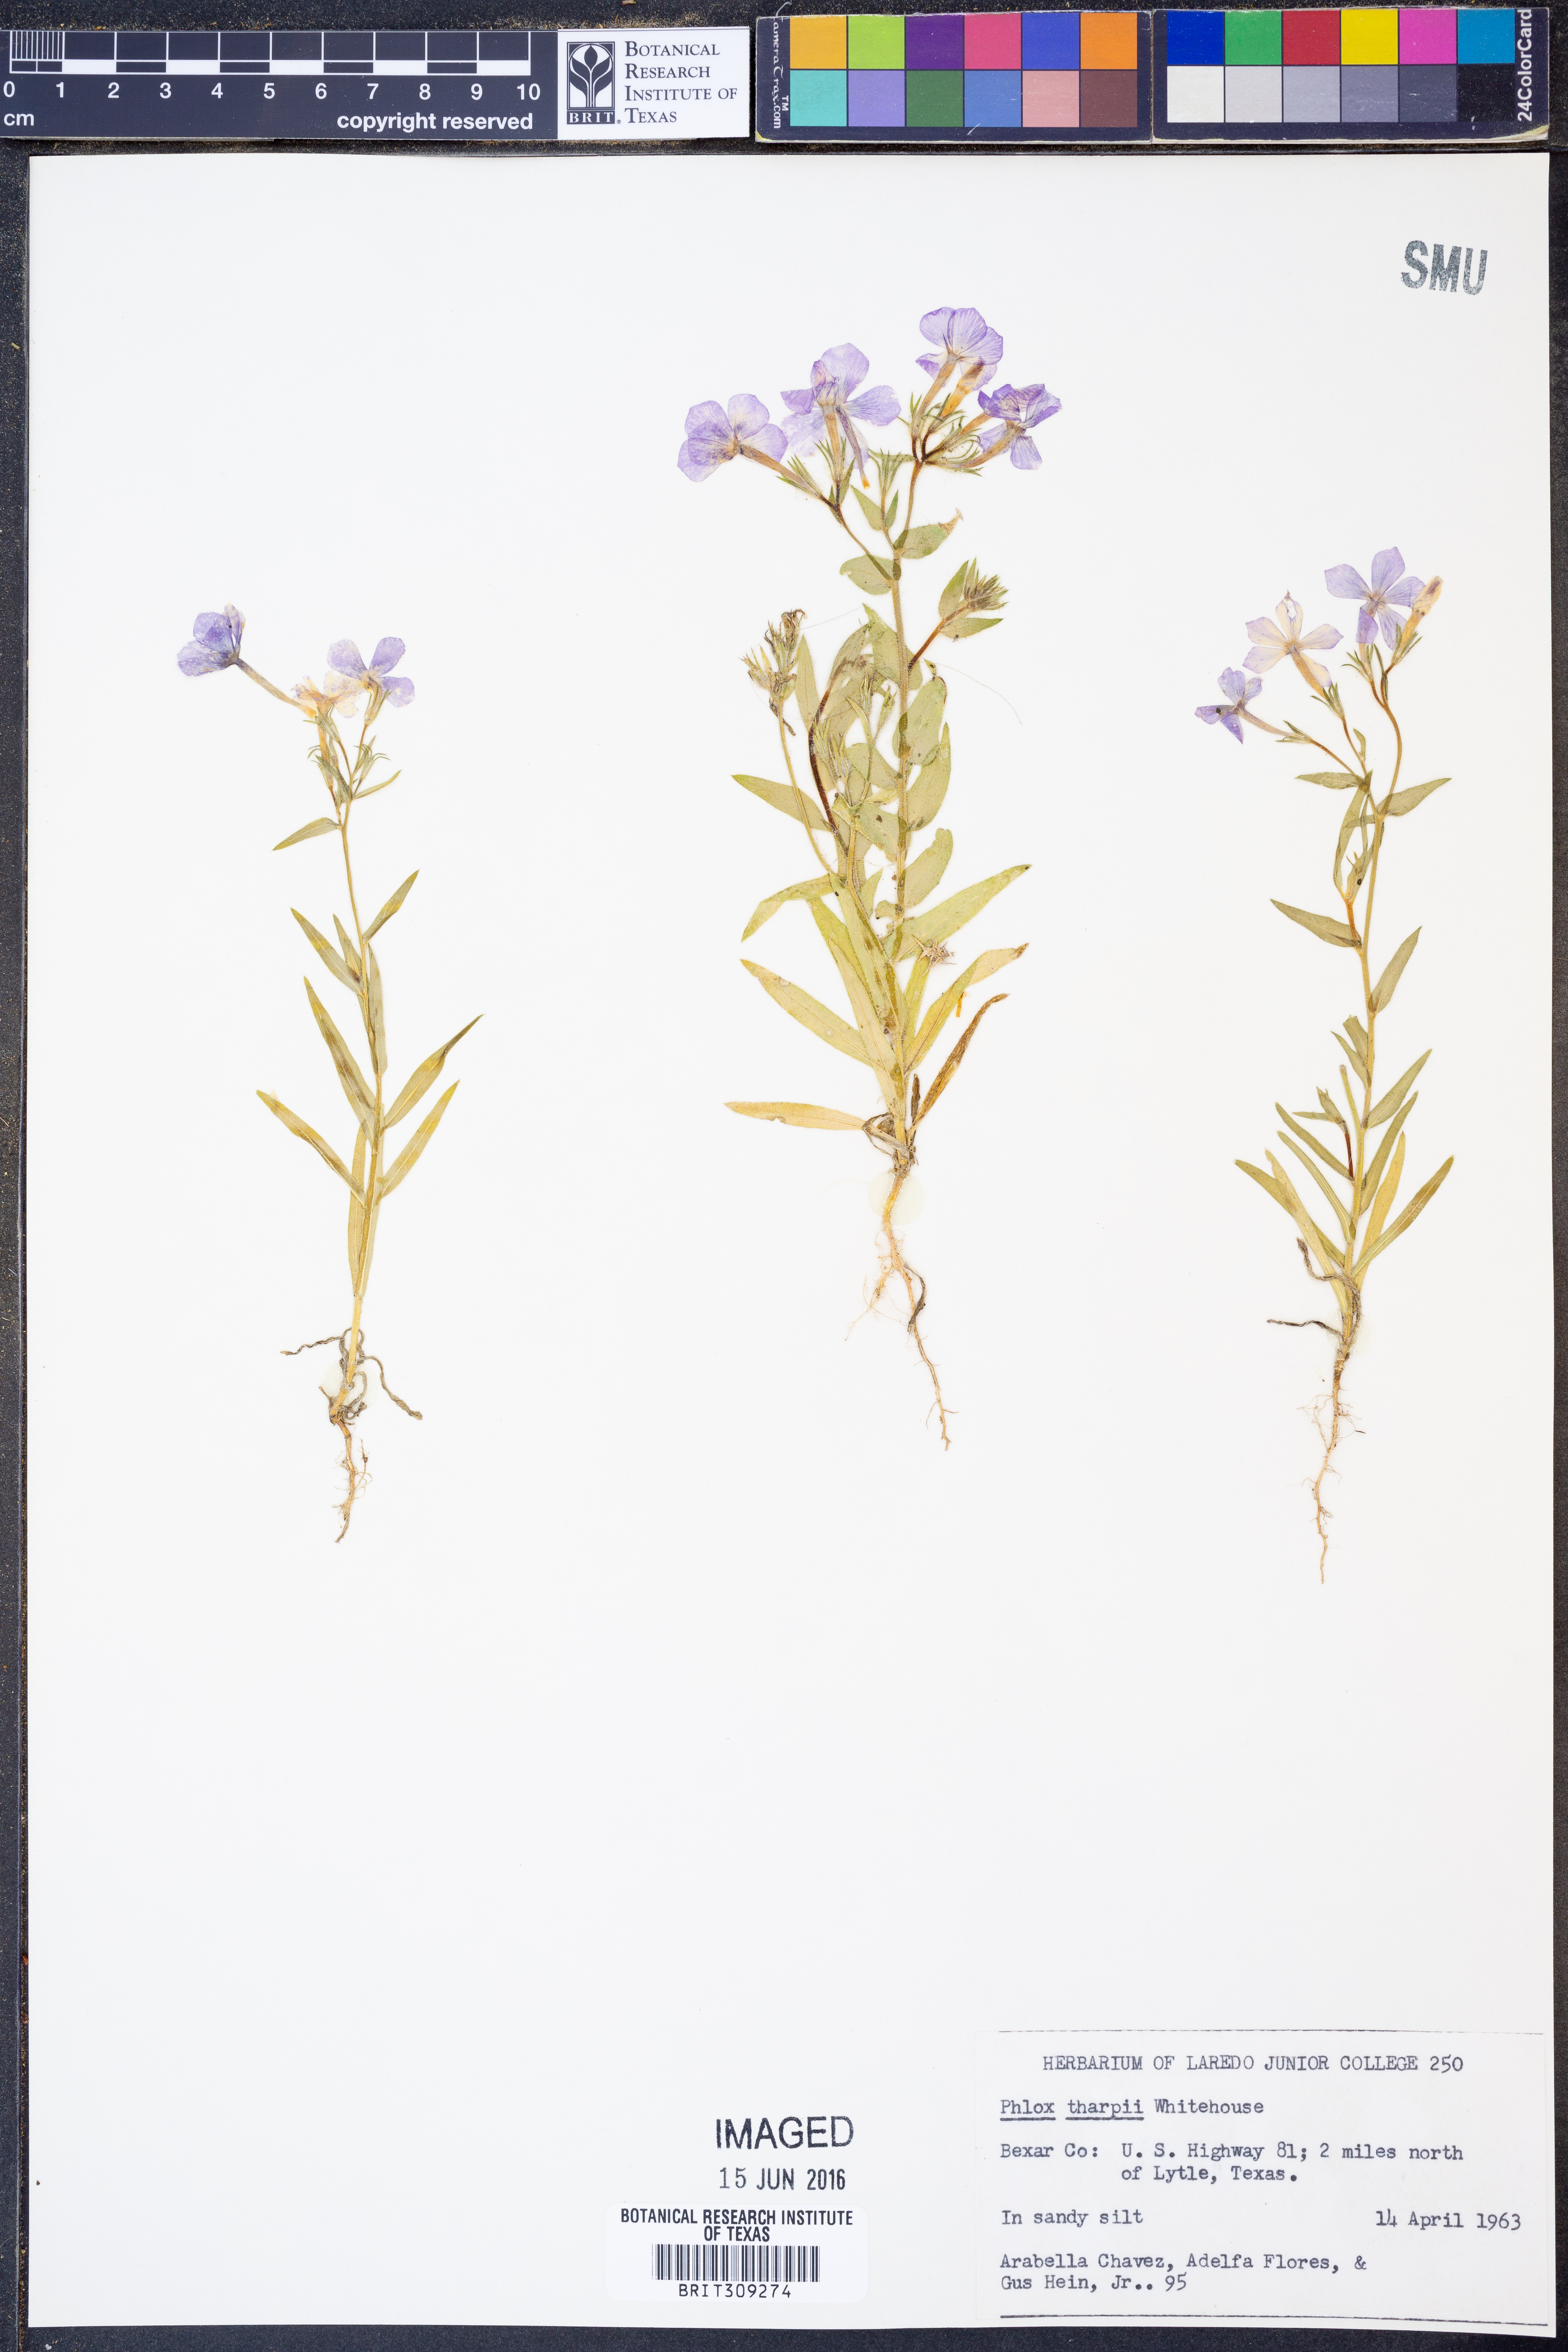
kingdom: Plantae
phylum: Tracheophyta
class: Magnoliopsida
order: Ericales
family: Polemoniaceae
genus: Phlox
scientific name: Phlox drummondii
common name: Drummond's phlox
